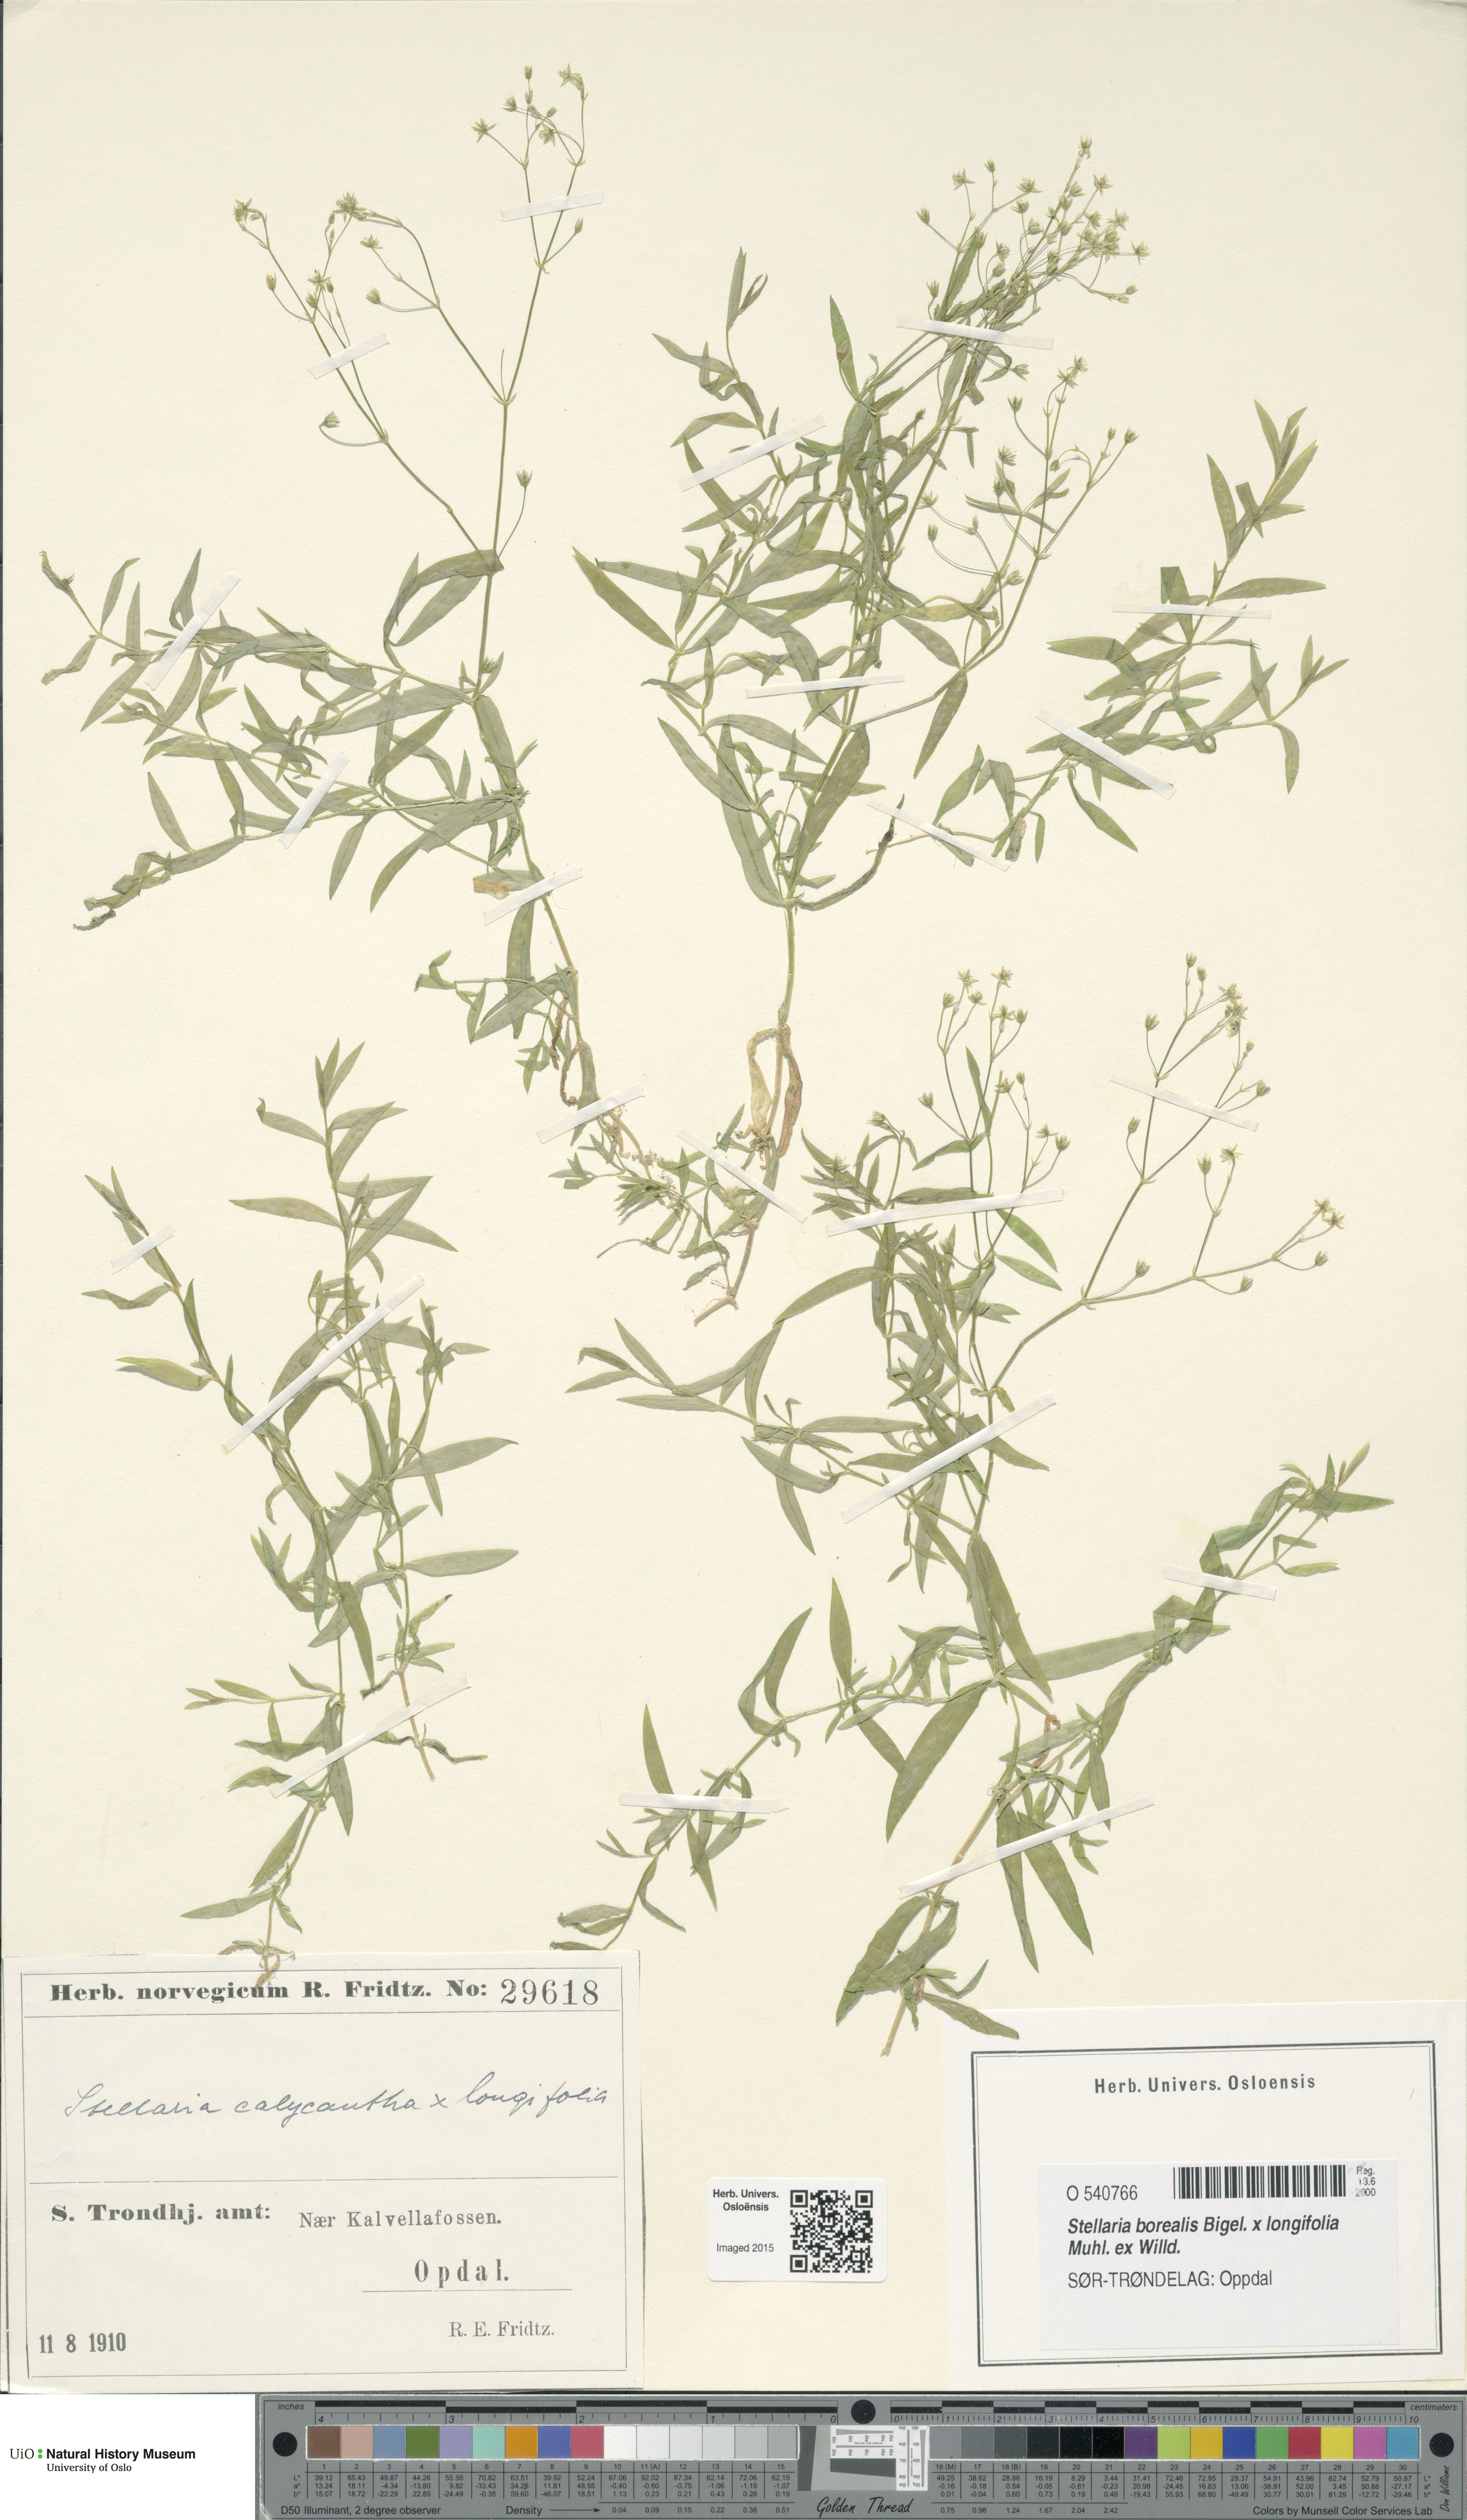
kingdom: Plantae
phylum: Tracheophyta
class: Magnoliopsida
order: Caryophyllales
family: Caryophyllaceae
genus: Stellaria
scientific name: Stellaria
